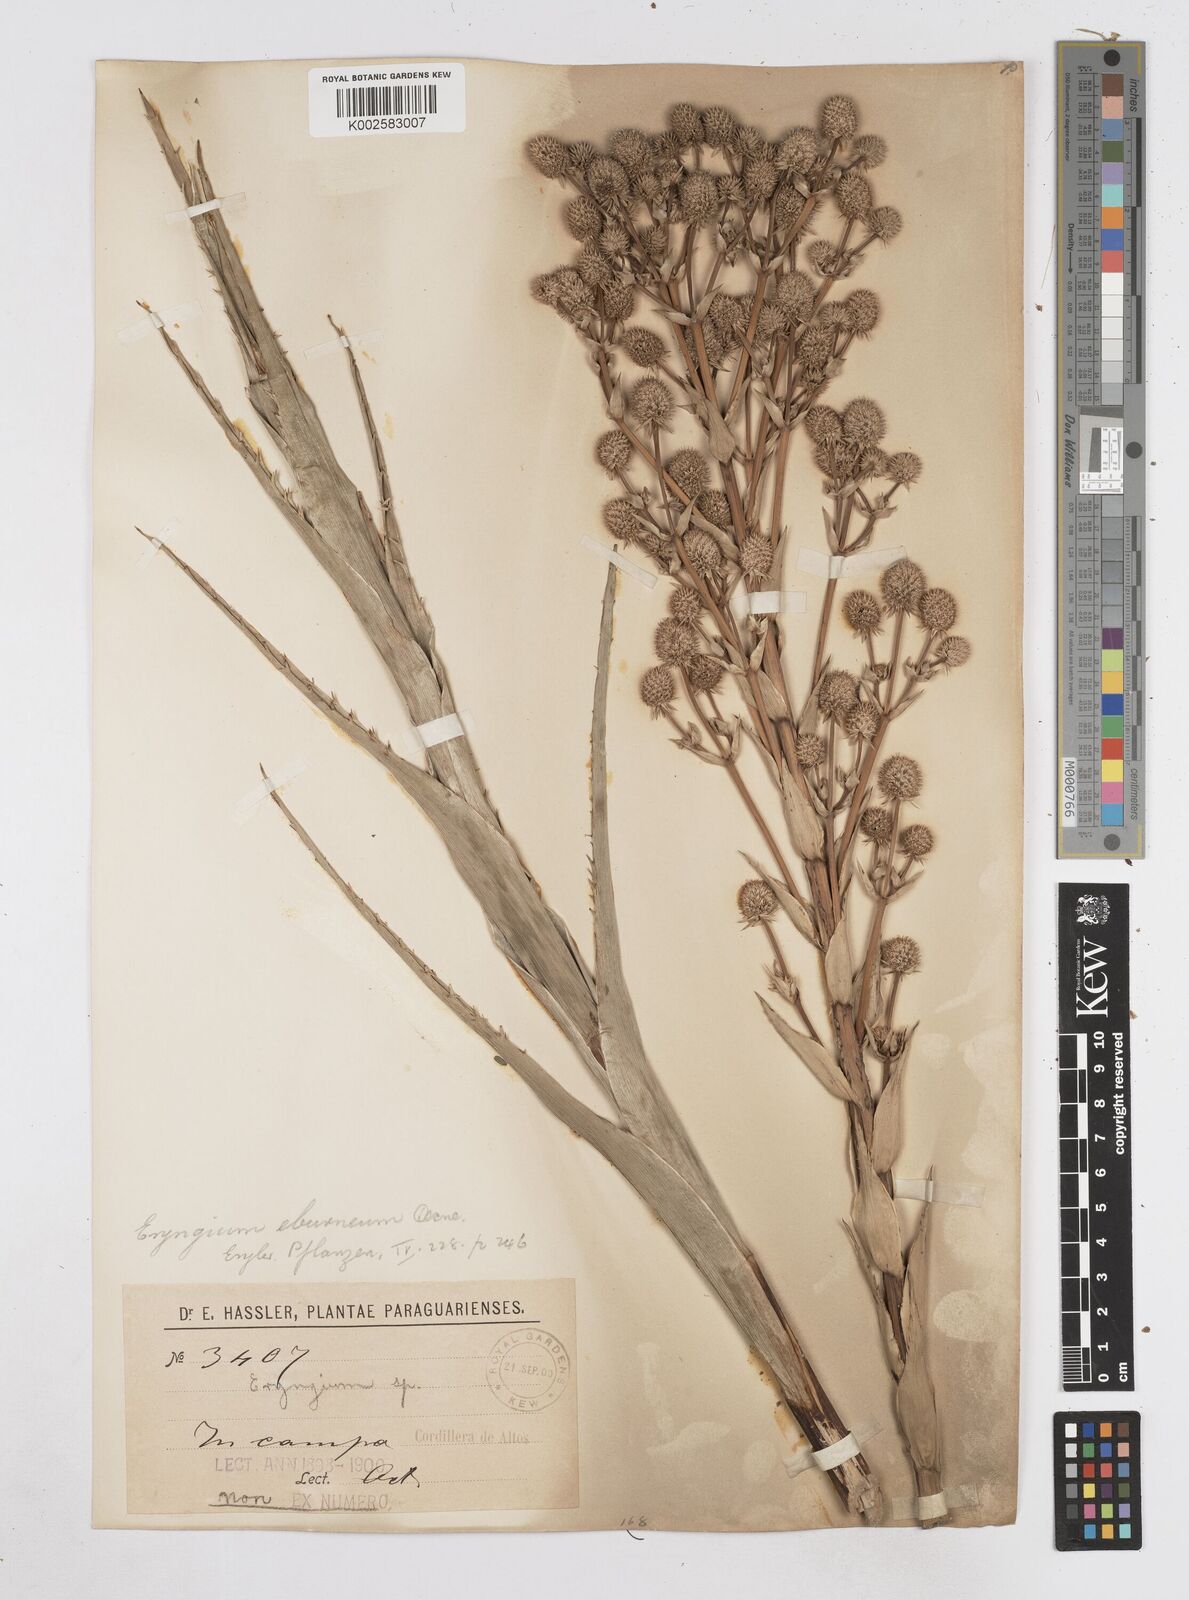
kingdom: Plantae
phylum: Tracheophyta
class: Magnoliopsida
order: Apiales
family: Apiaceae
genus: Eryngium
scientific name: Eryngium eburneum
